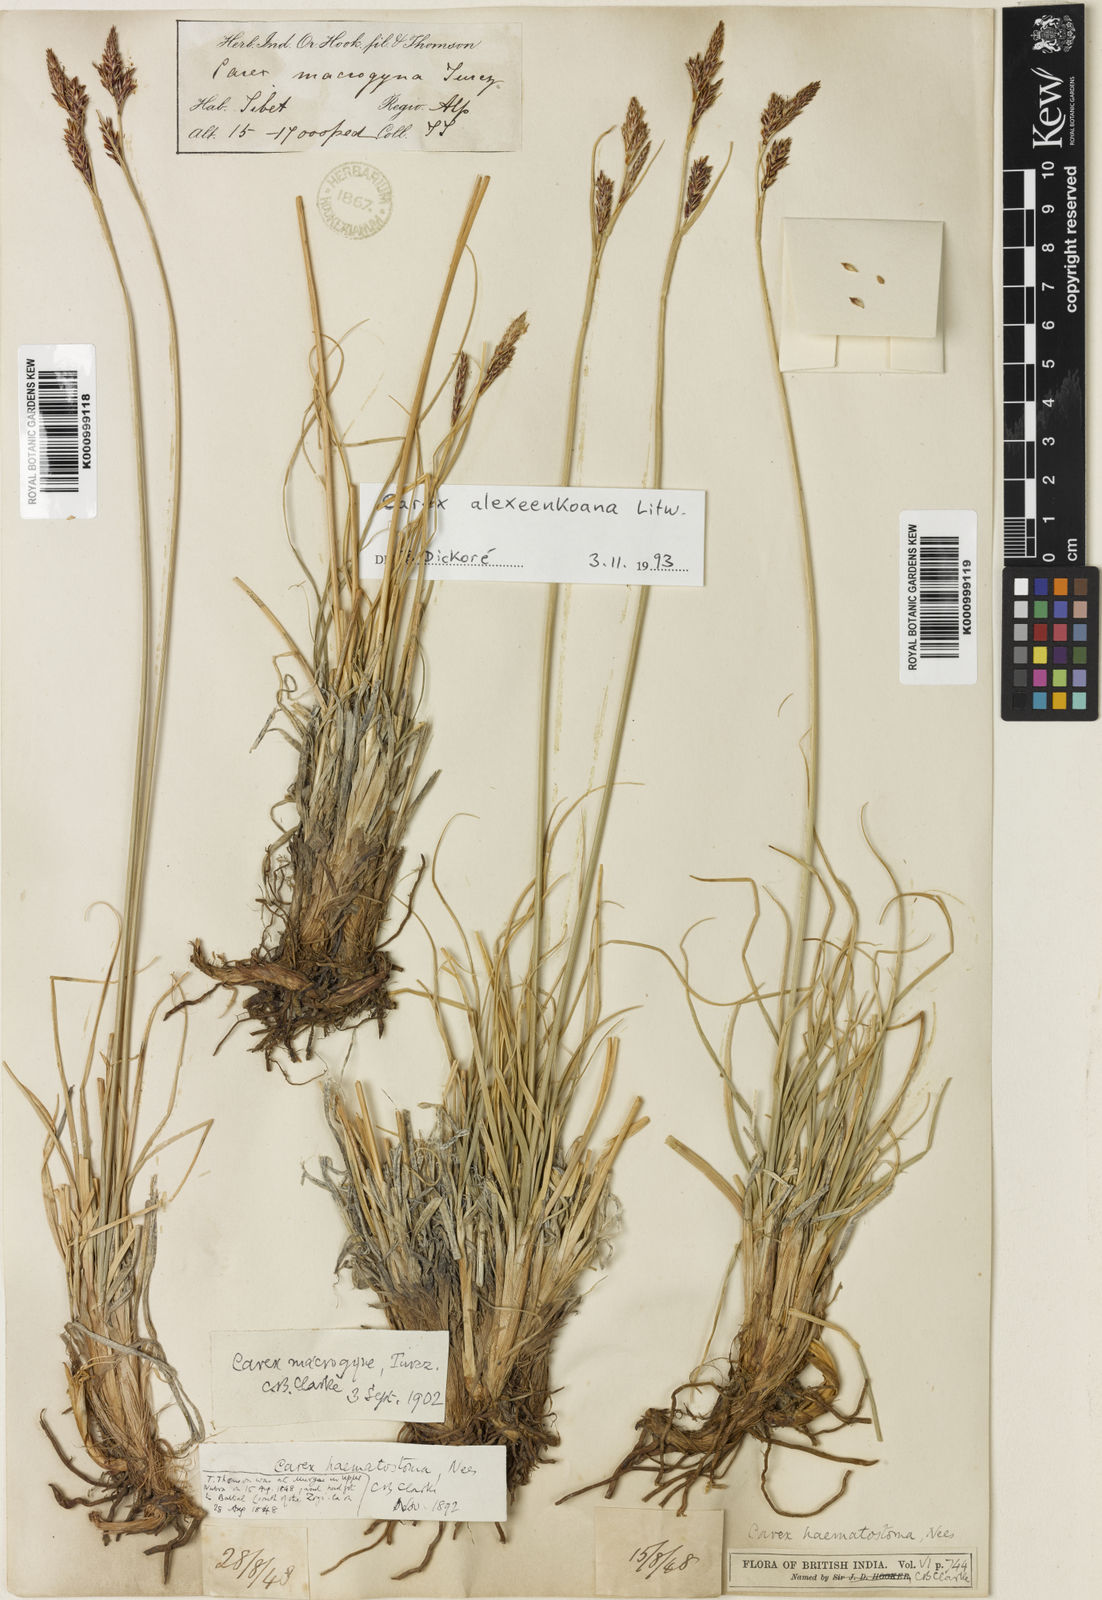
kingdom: Plantae
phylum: Tracheophyta
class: Liliopsida
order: Poales
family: Cyperaceae
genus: Carex
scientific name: Carex haematostoma
